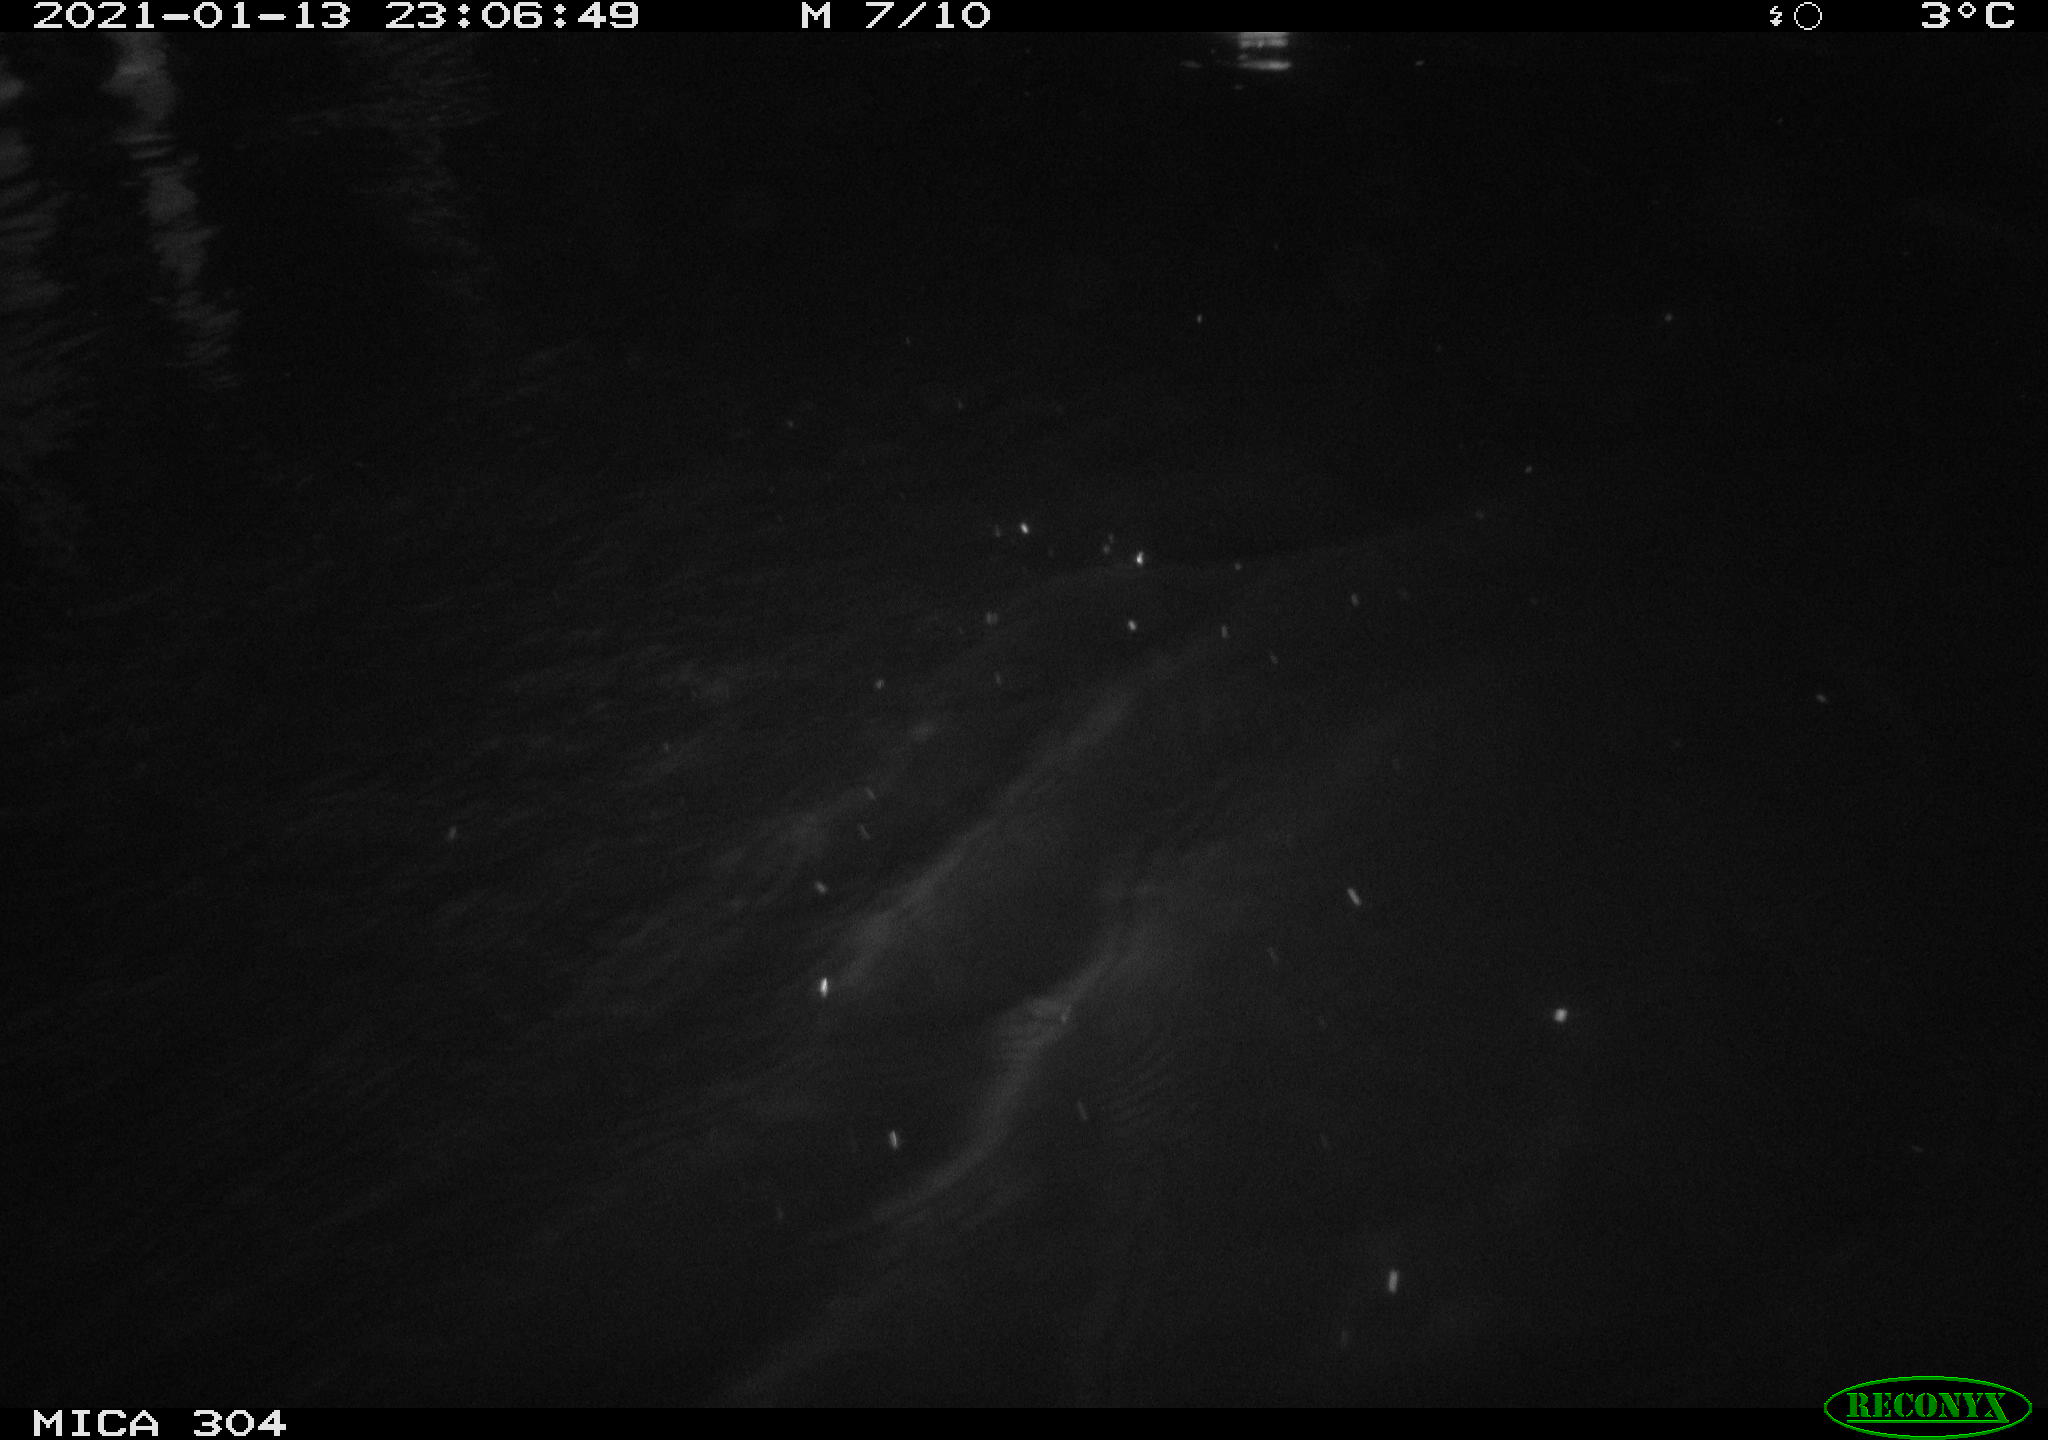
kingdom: Animalia
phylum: Chordata
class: Mammalia
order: Rodentia
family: Muridae
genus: Rattus
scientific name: Rattus norvegicus
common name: Brown rat
